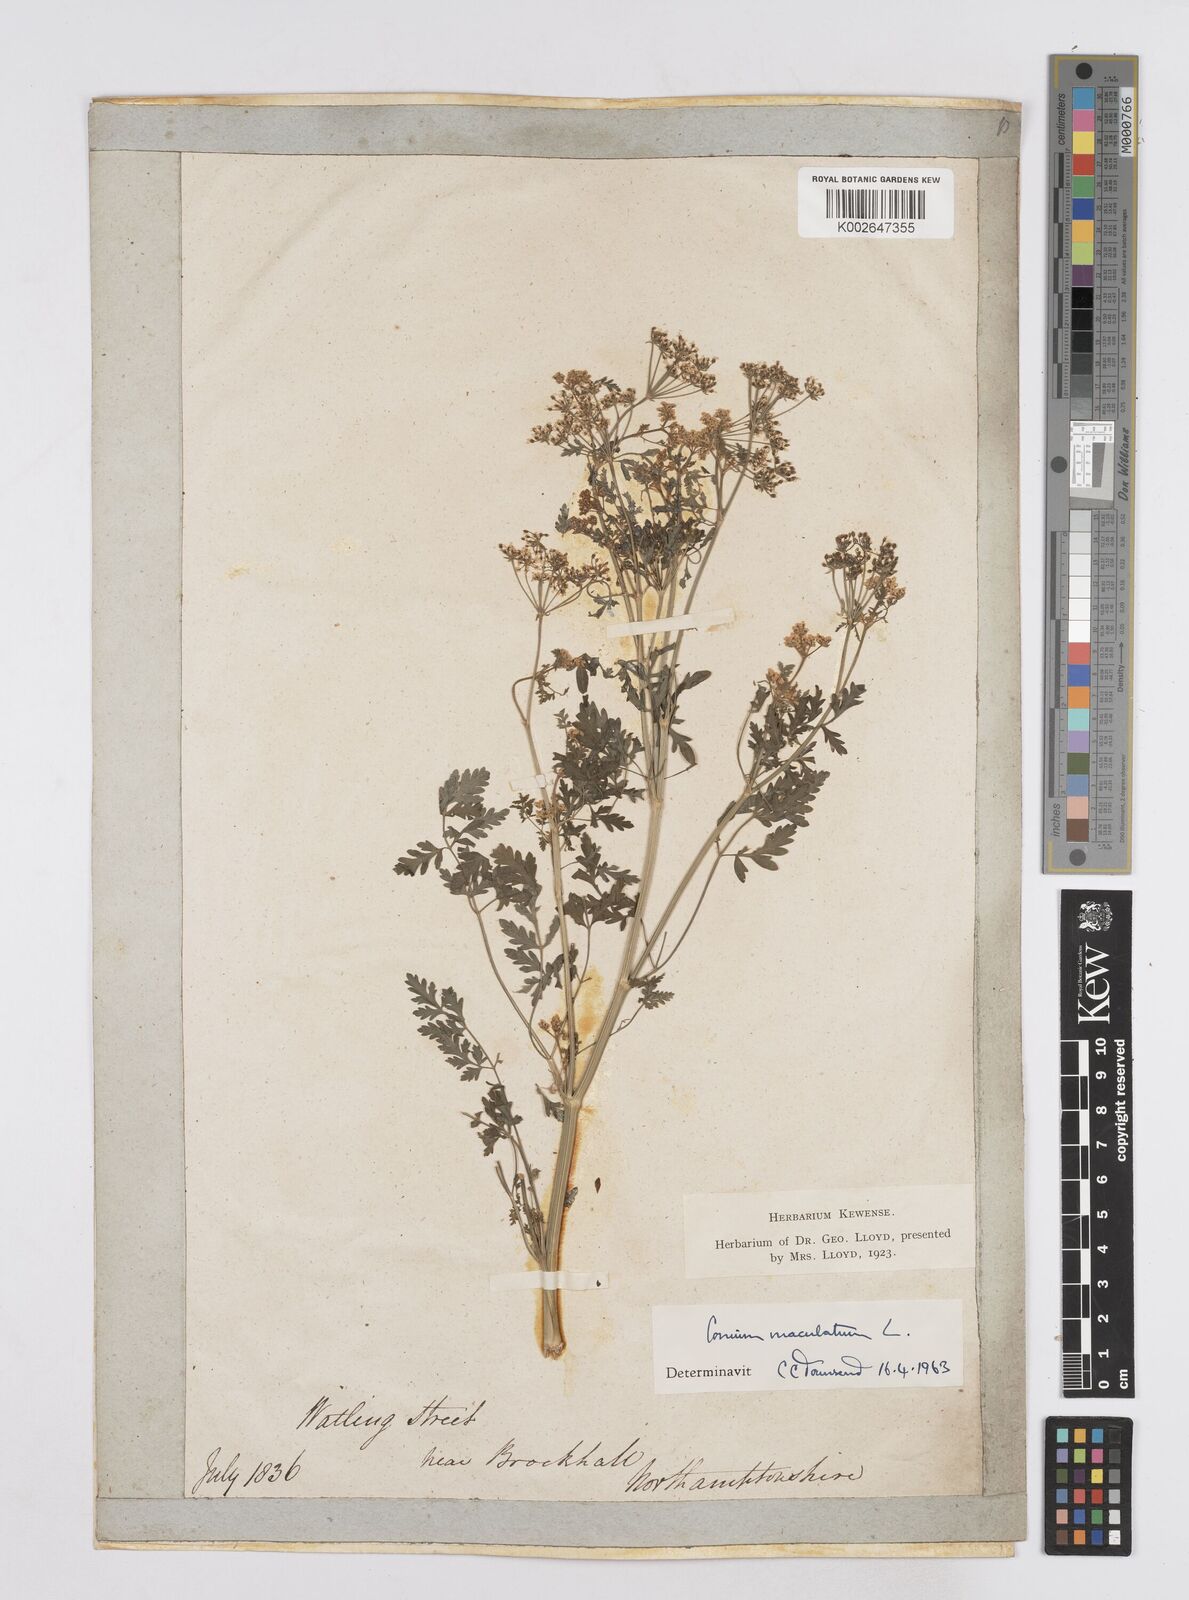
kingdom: Plantae
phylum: Tracheophyta
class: Magnoliopsida
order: Apiales
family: Apiaceae
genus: Conium
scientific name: Conium maculatum
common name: Hemlock
